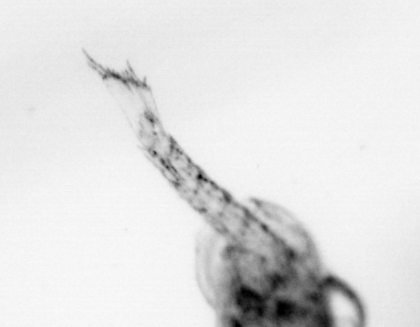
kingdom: Animalia
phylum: Arthropoda
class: Malacostraca
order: Decapoda
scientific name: Decapoda
